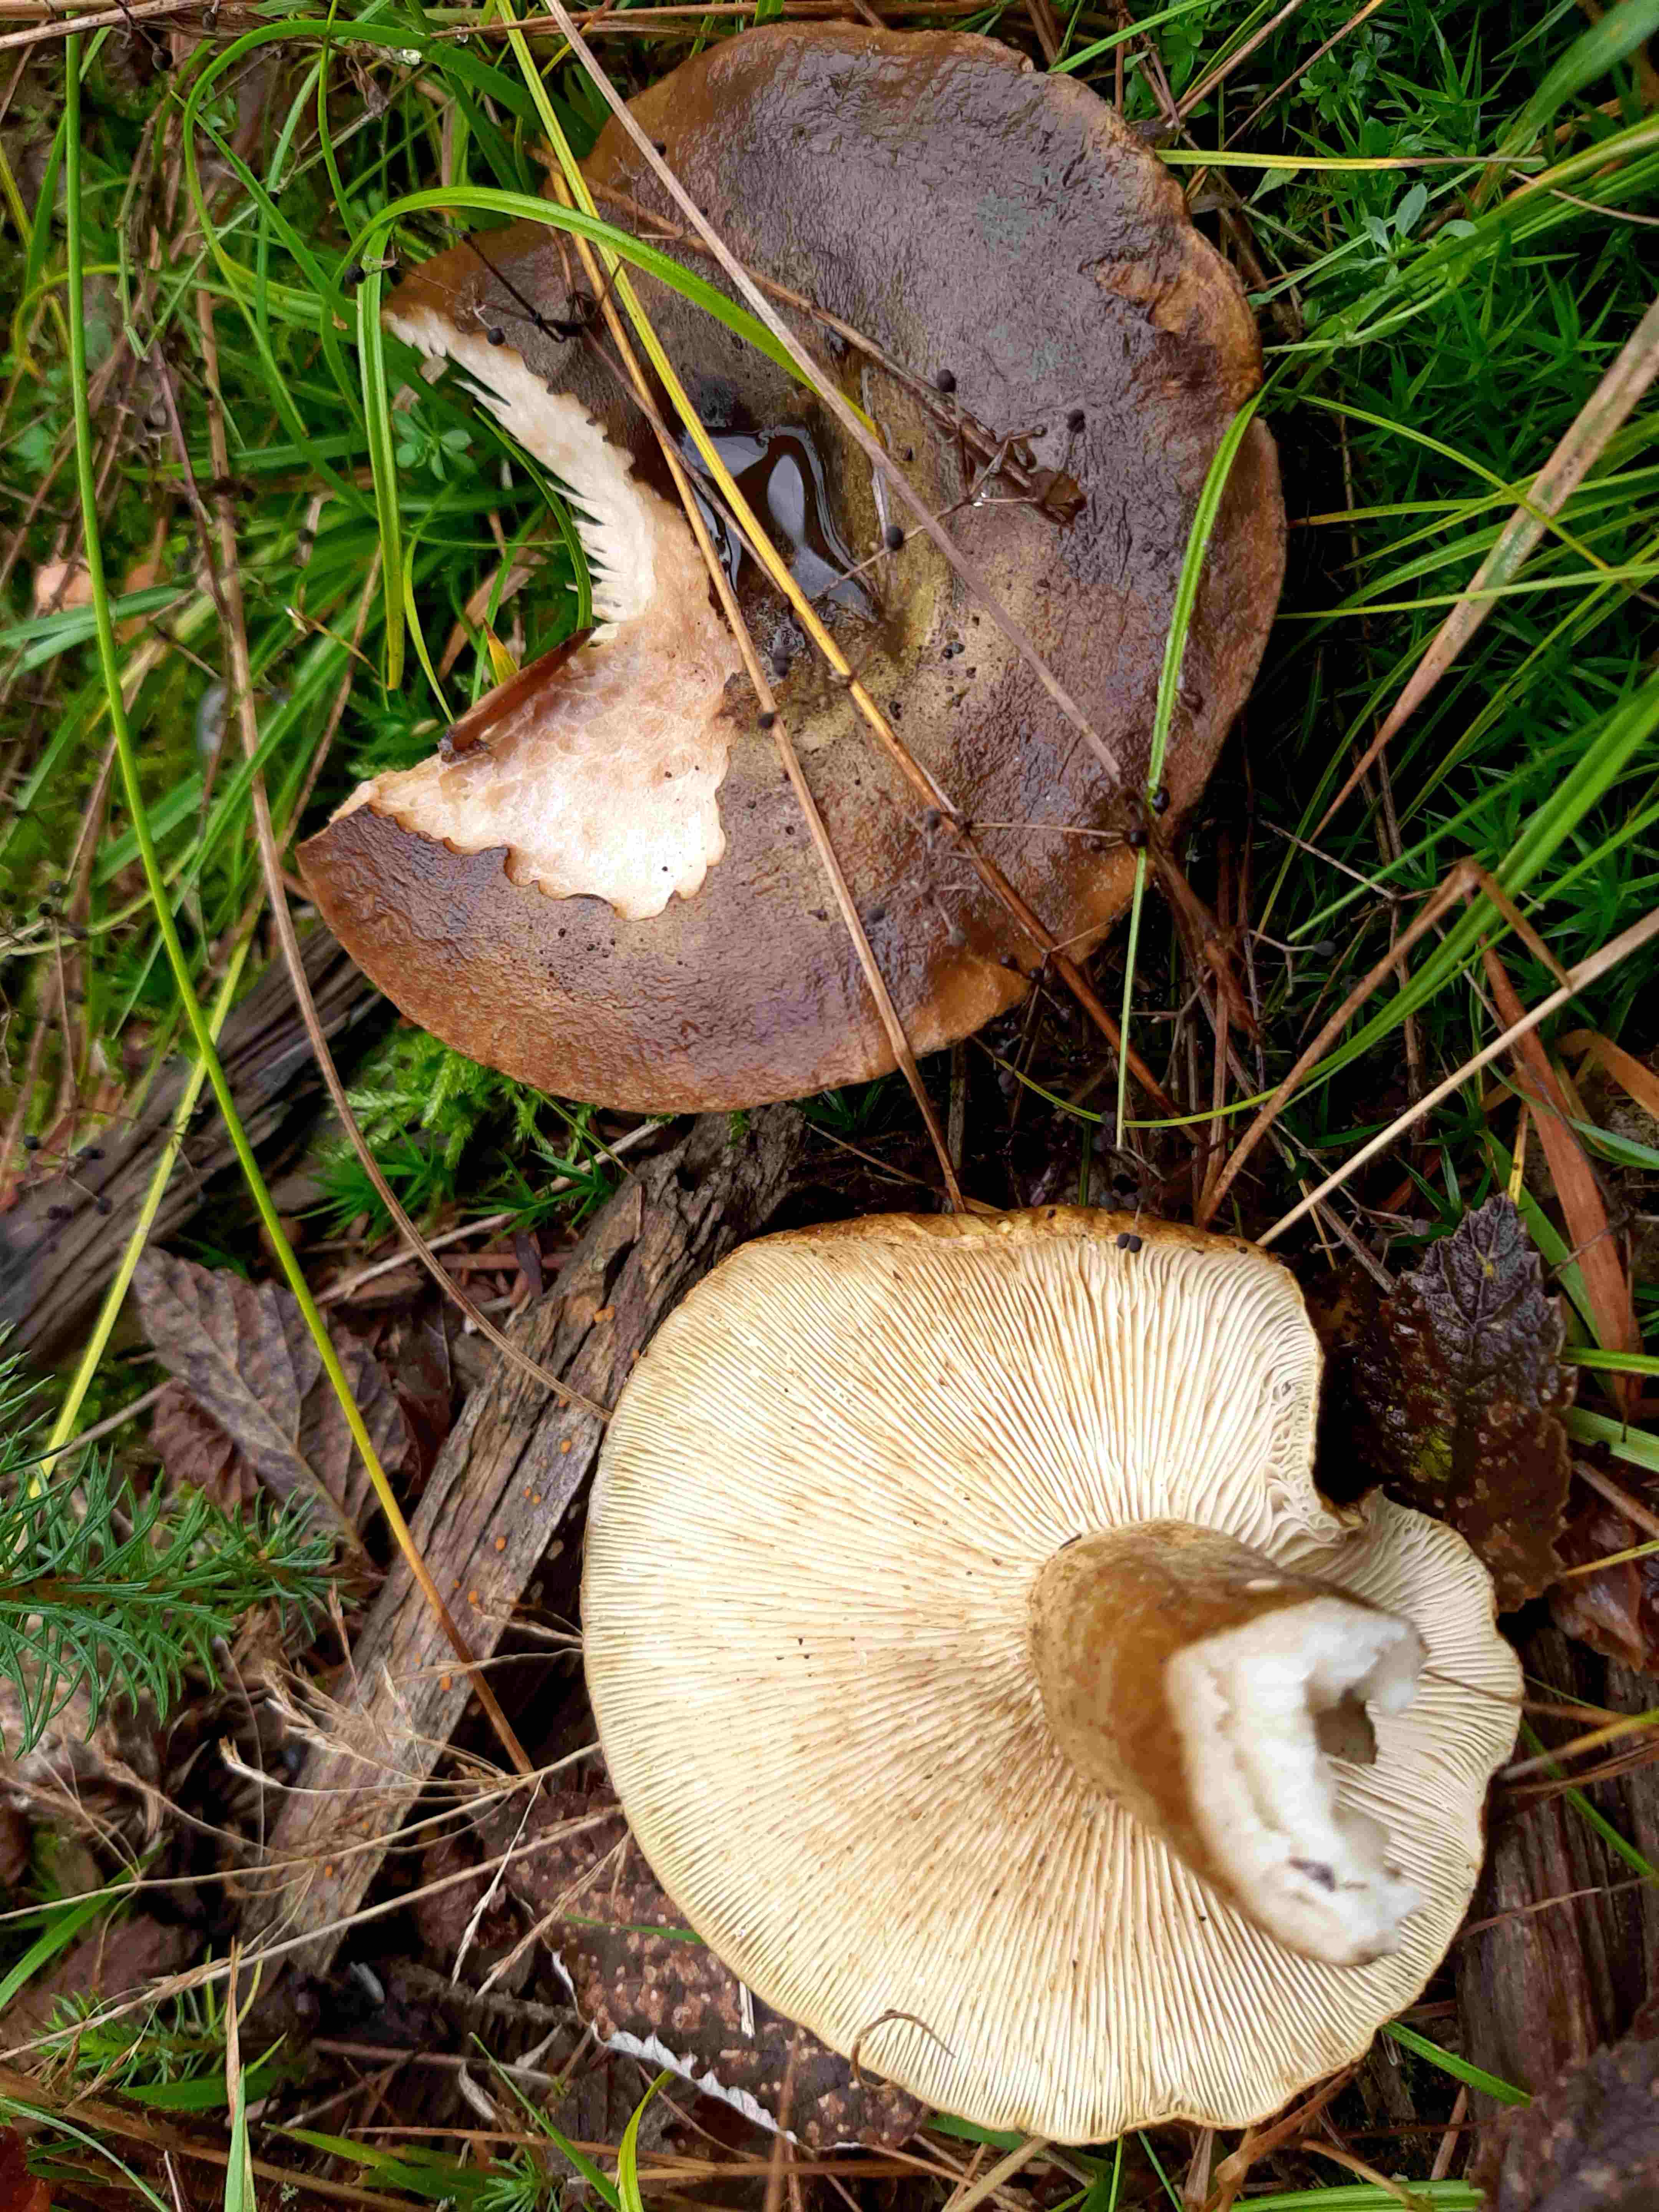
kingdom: Fungi
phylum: Basidiomycota
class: Agaricomycetes
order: Russulales
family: Russulaceae
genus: Lactarius
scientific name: Lactarius necator
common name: manddraber-mælkehat
